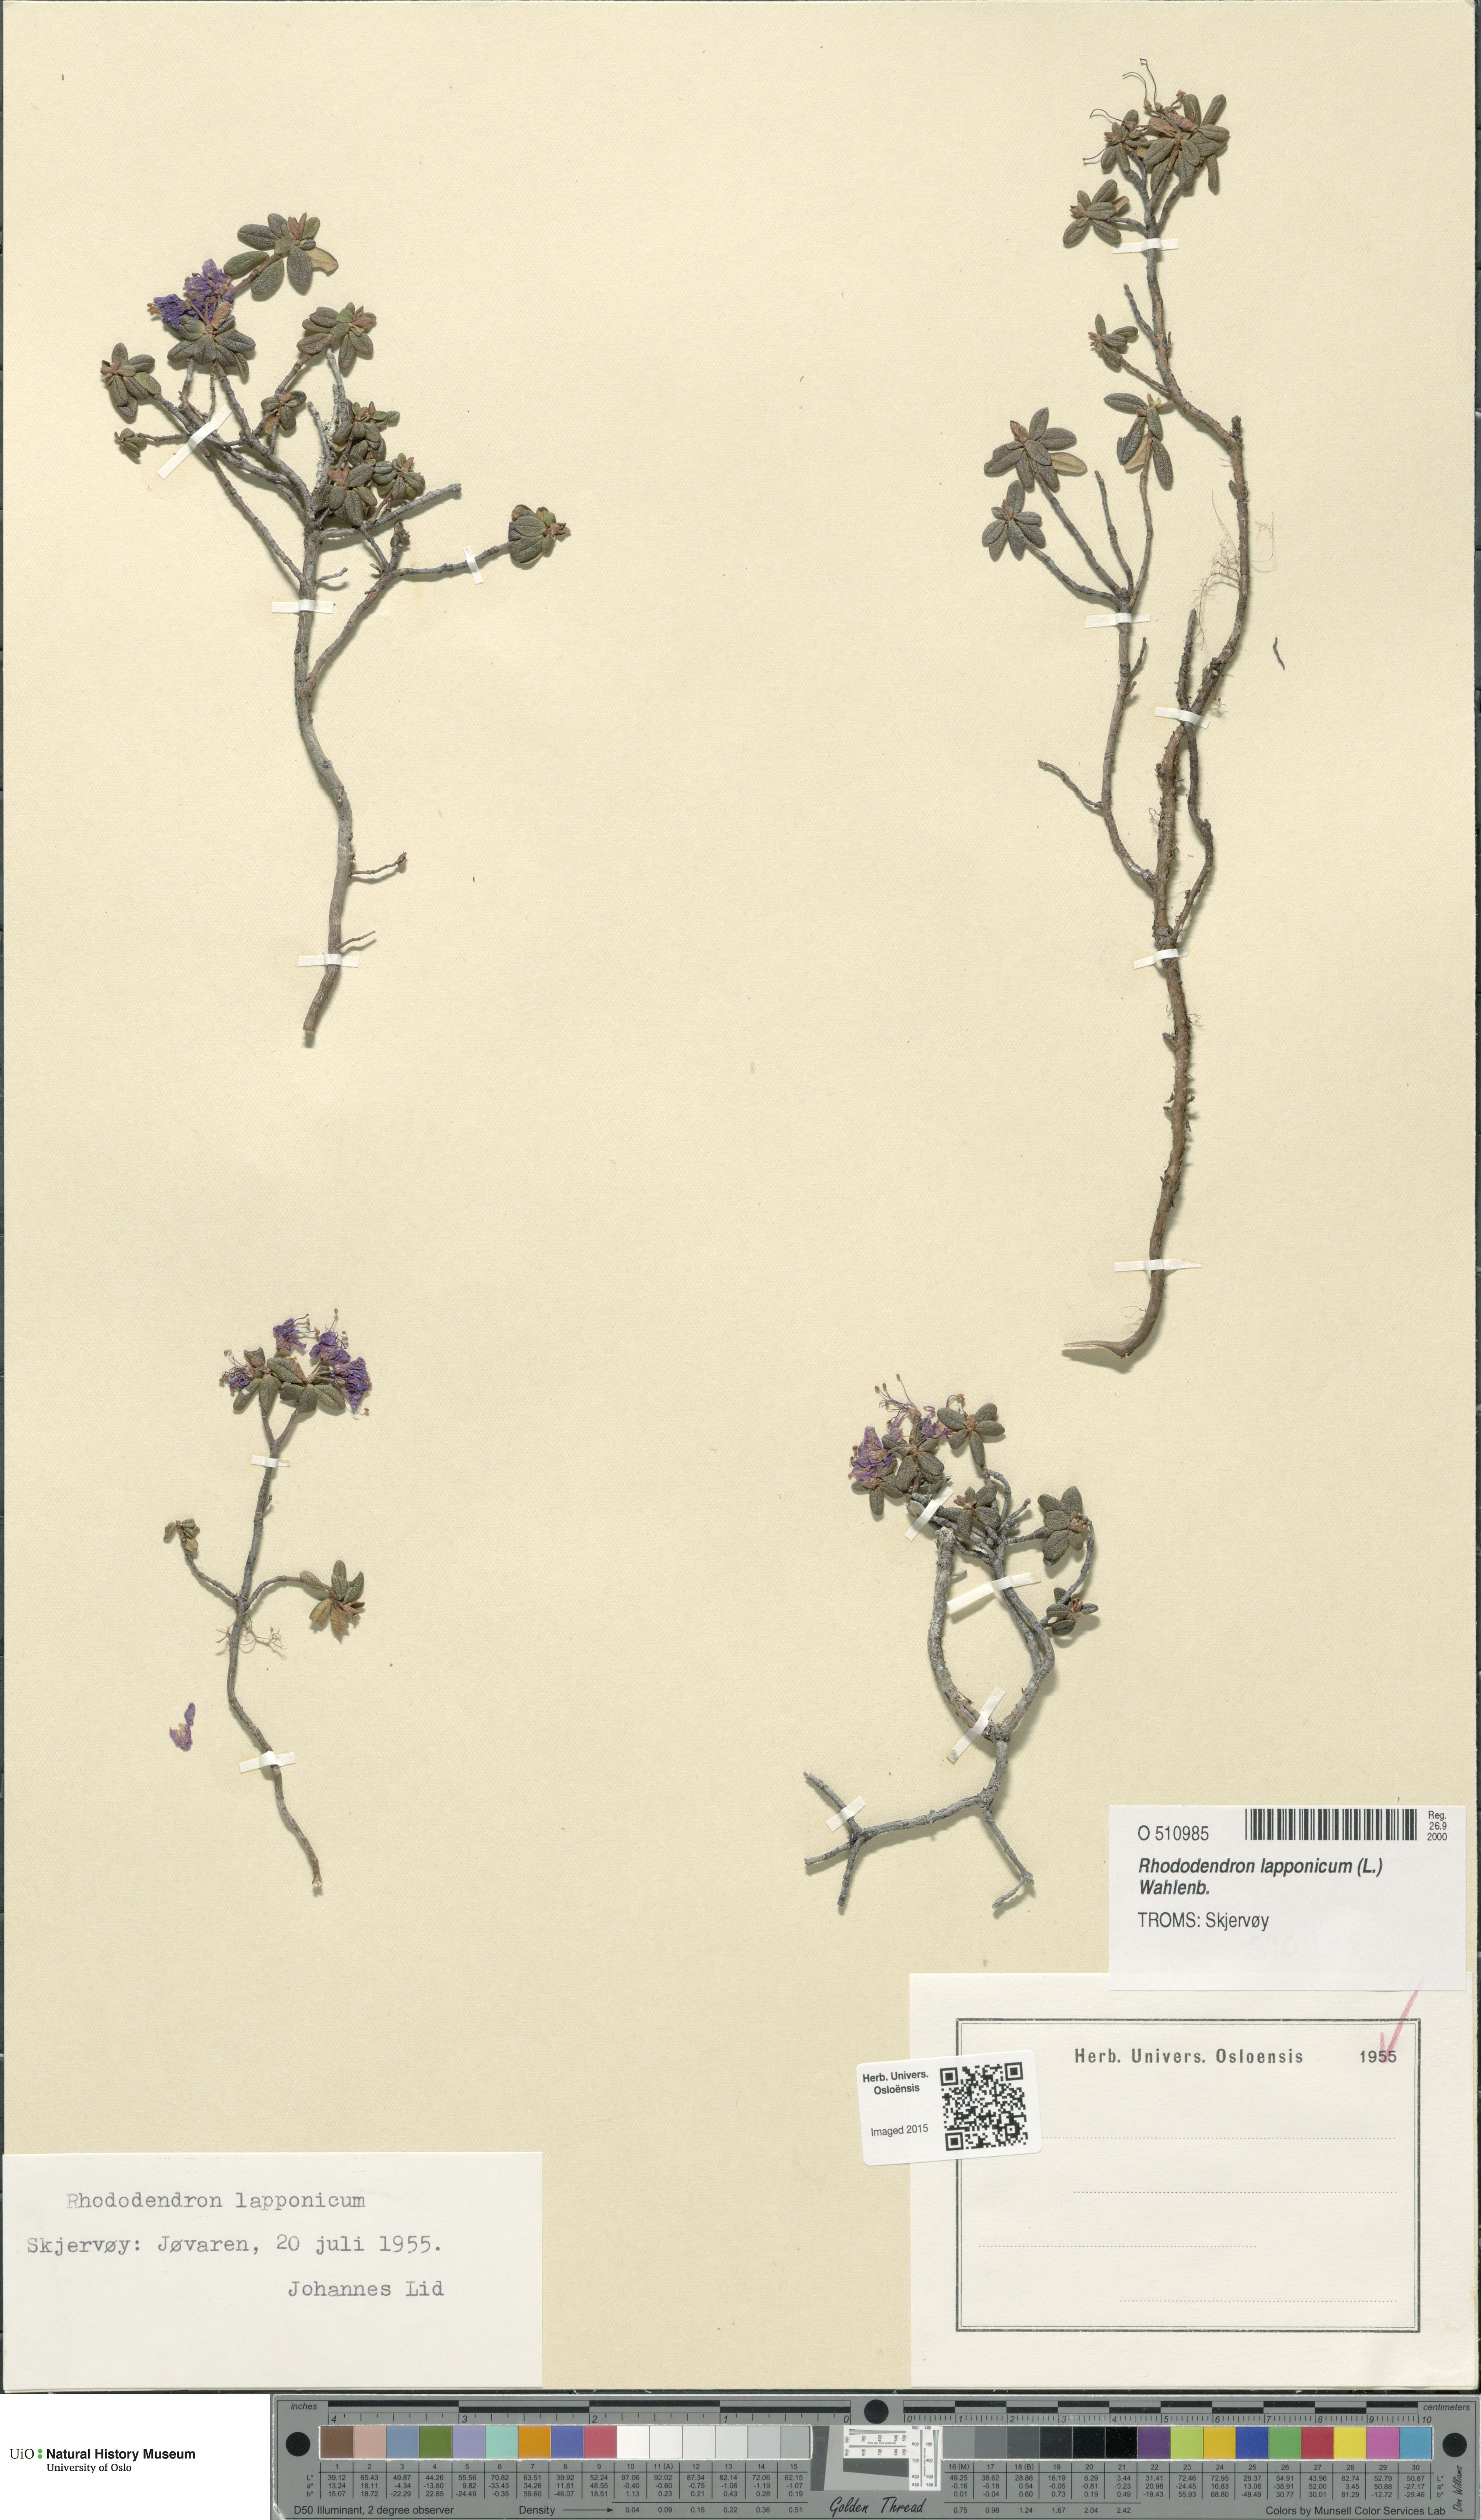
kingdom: Plantae
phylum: Tracheophyta
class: Magnoliopsida
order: Ericales
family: Ericaceae
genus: Rhododendron
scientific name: Rhododendron lapponicum
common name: Lapland rhododendron
